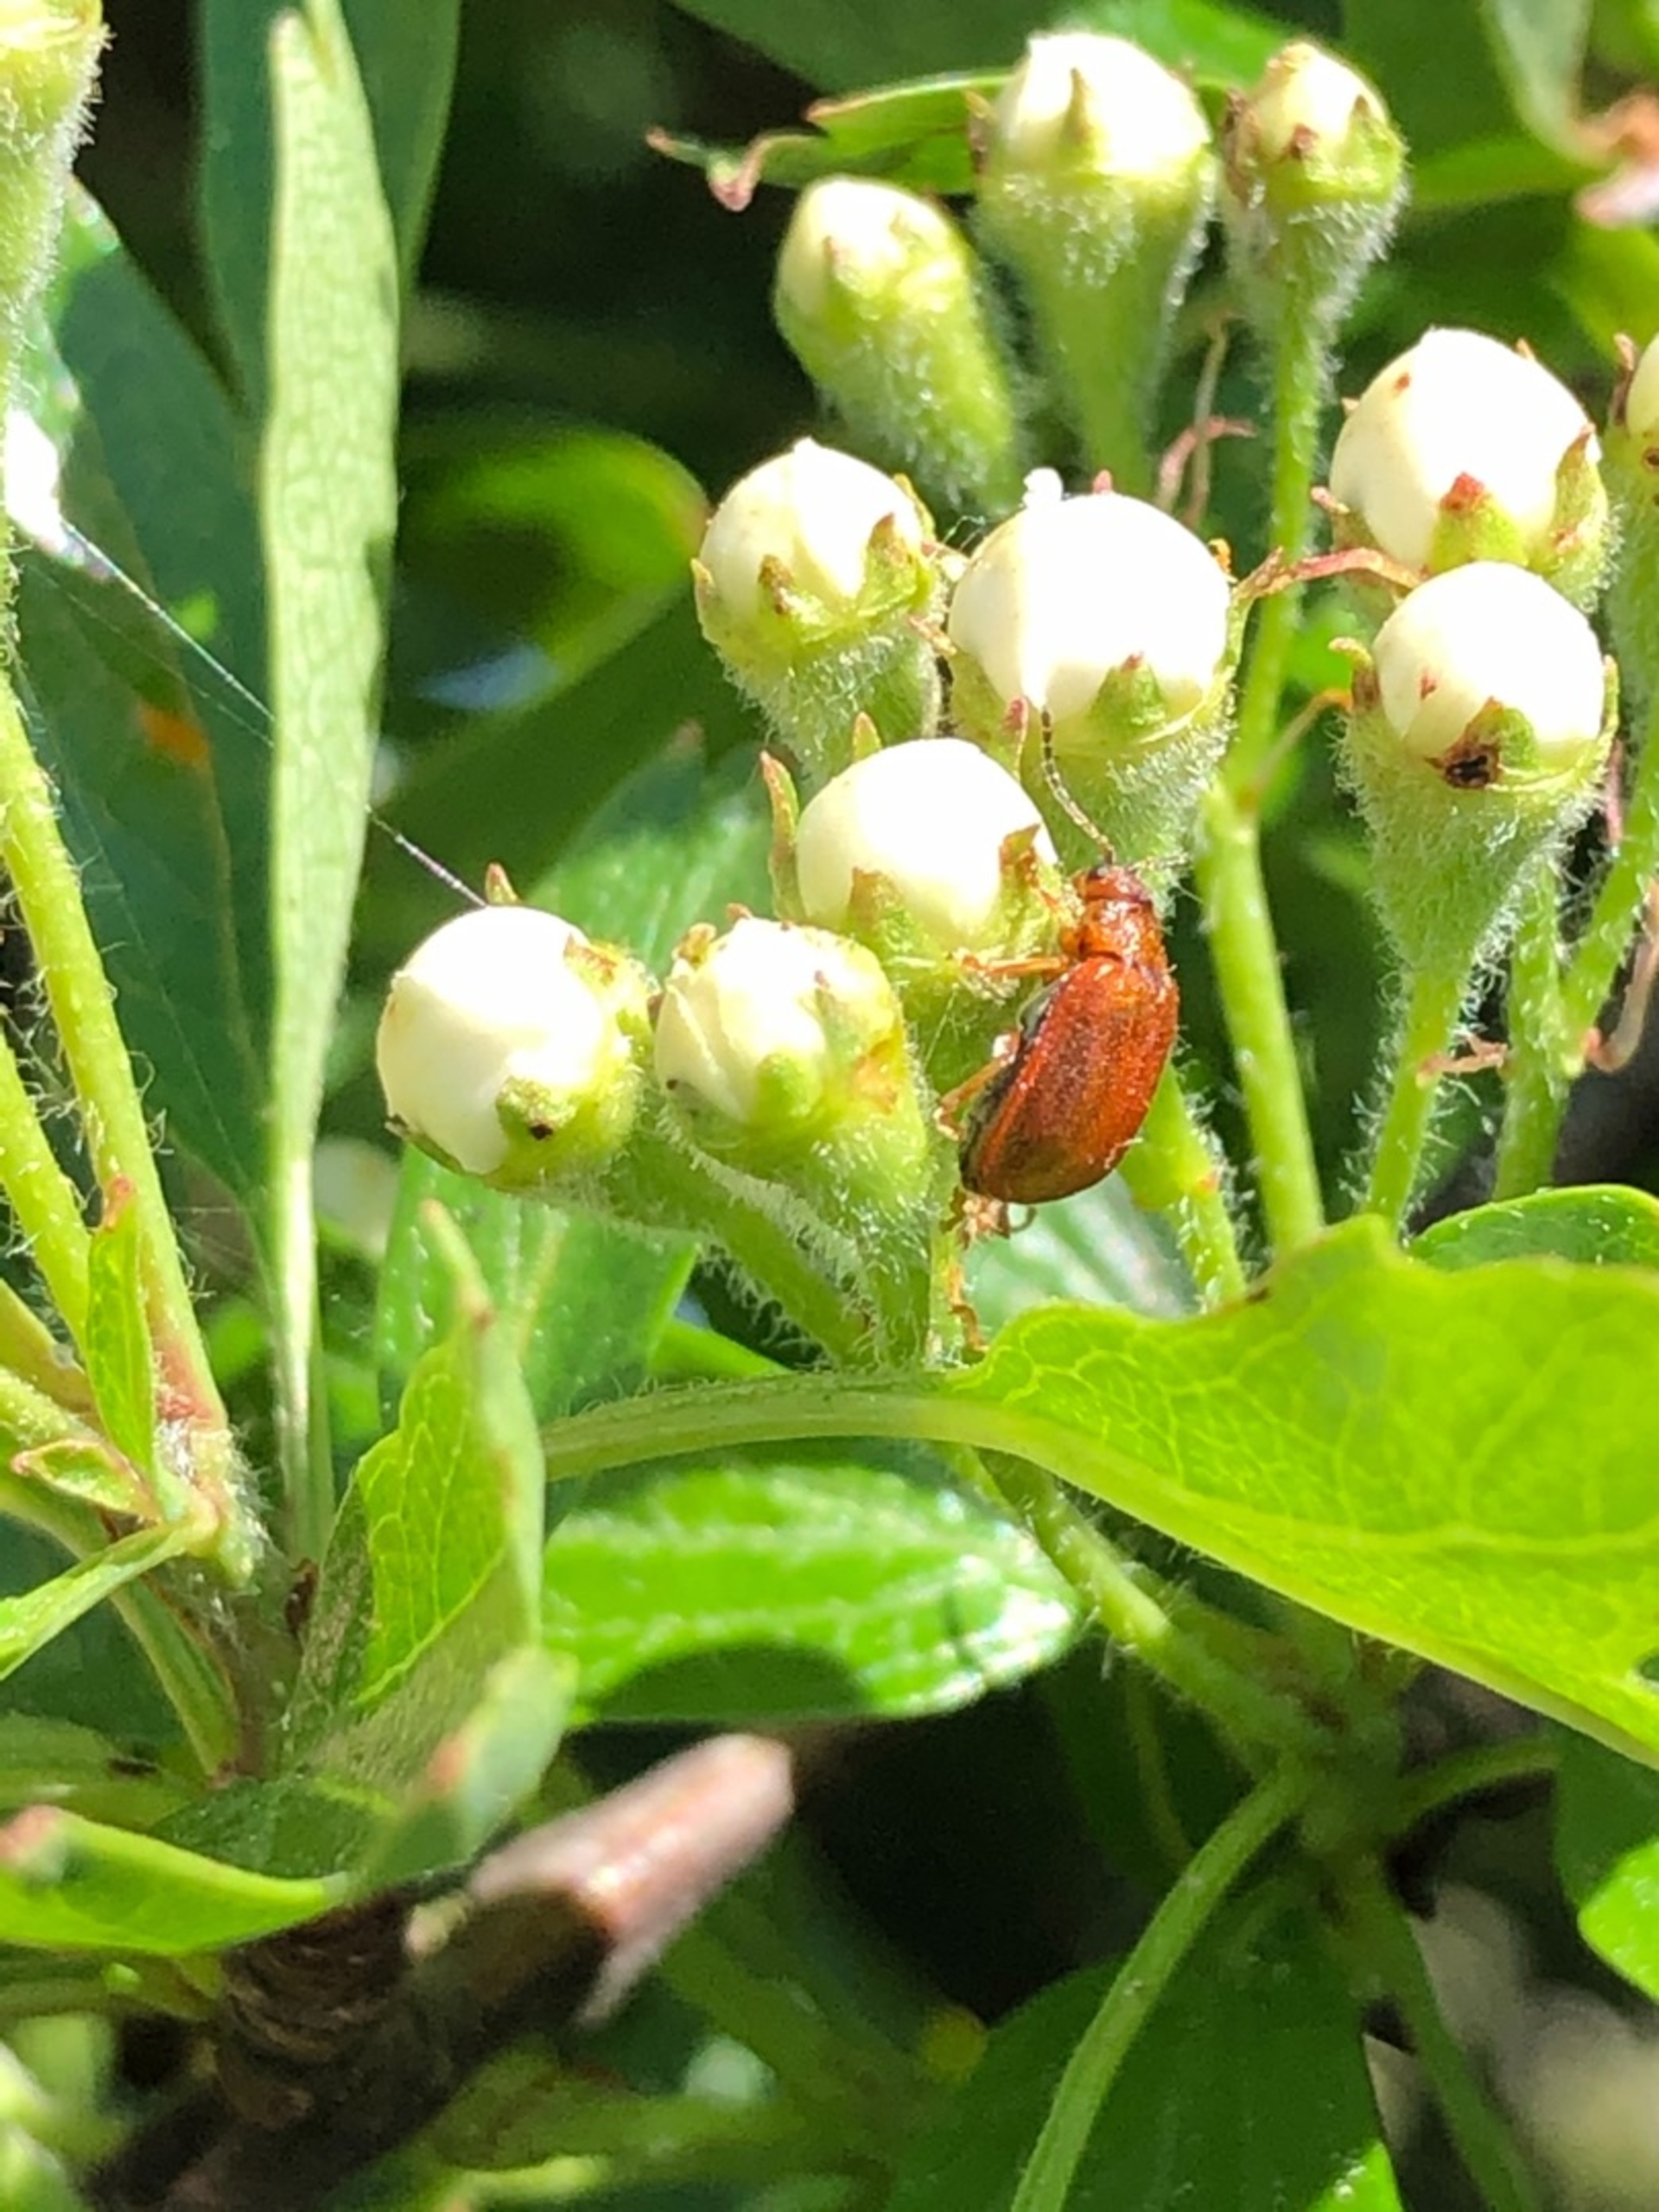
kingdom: Animalia
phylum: Arthropoda
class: Insecta
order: Coleoptera
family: Chrysomelidae
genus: Lochmaea
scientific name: Lochmaea crataegi
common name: Tjørnebladbille
